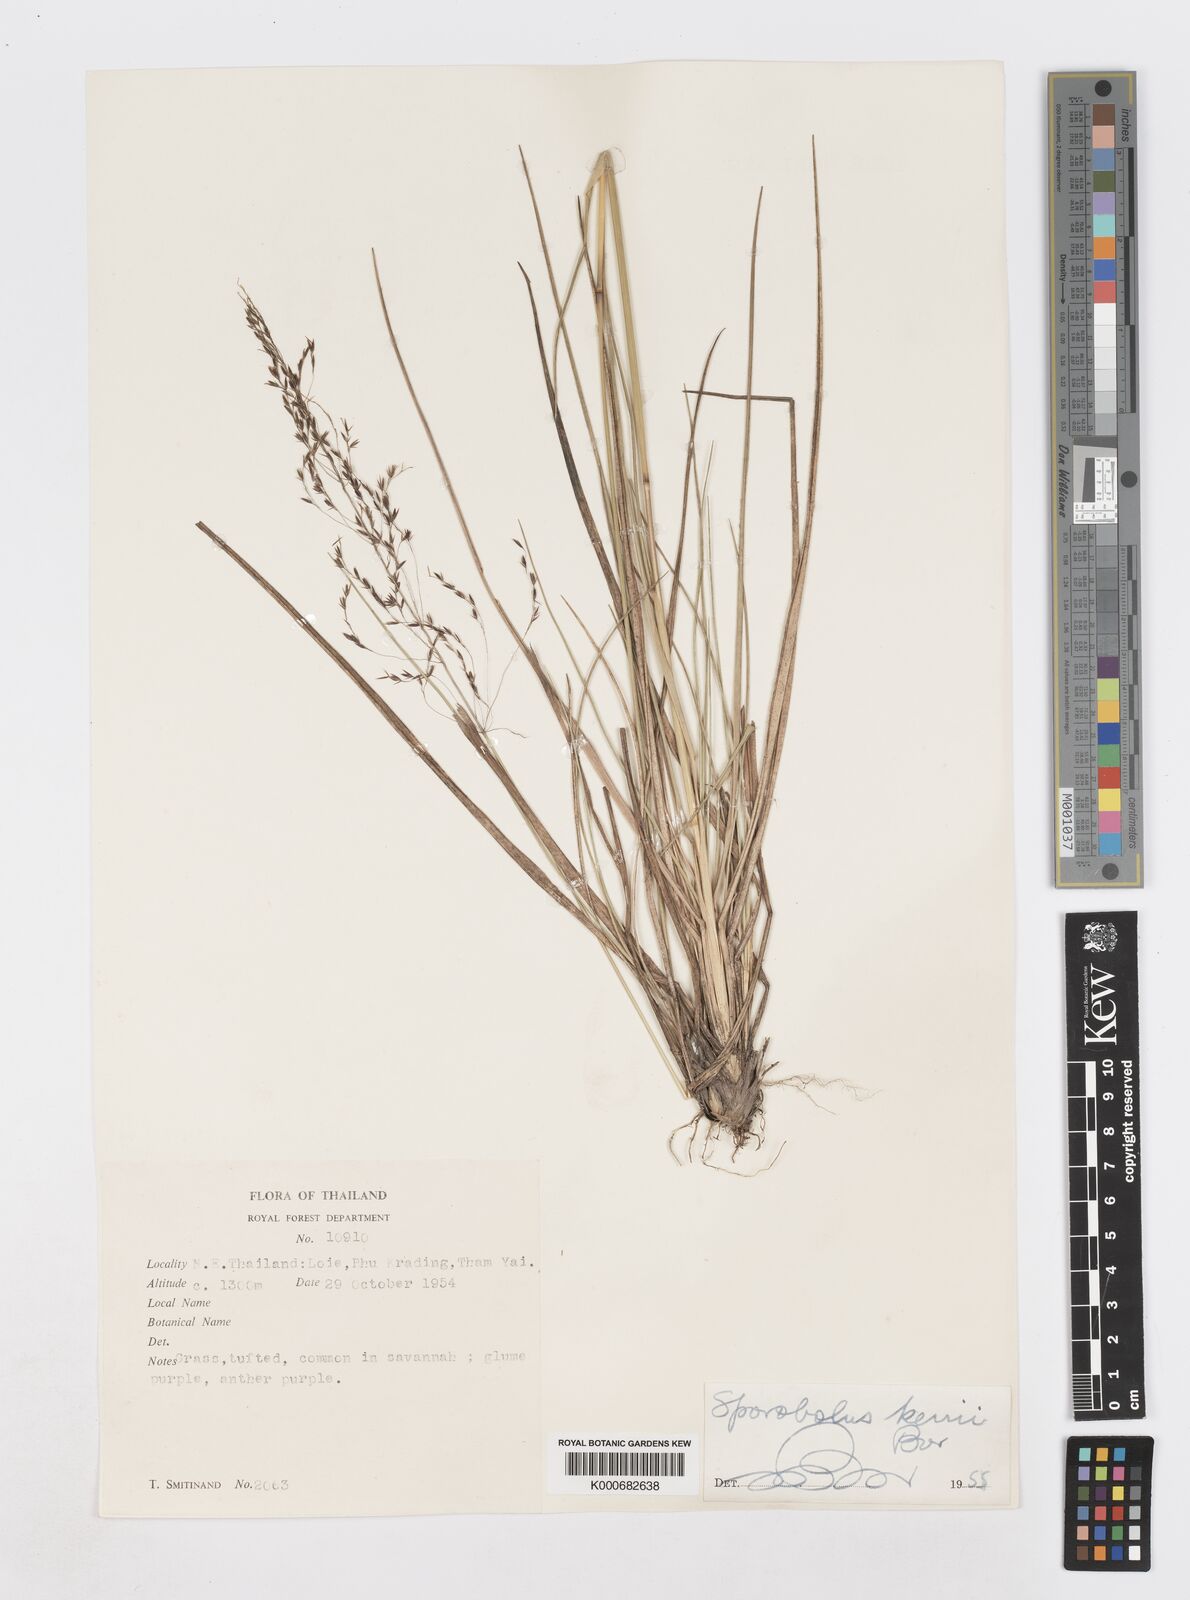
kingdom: Plantae
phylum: Tracheophyta
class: Liliopsida
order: Poales
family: Poaceae
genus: Sporobolus
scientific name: Sporobolus kerrii
